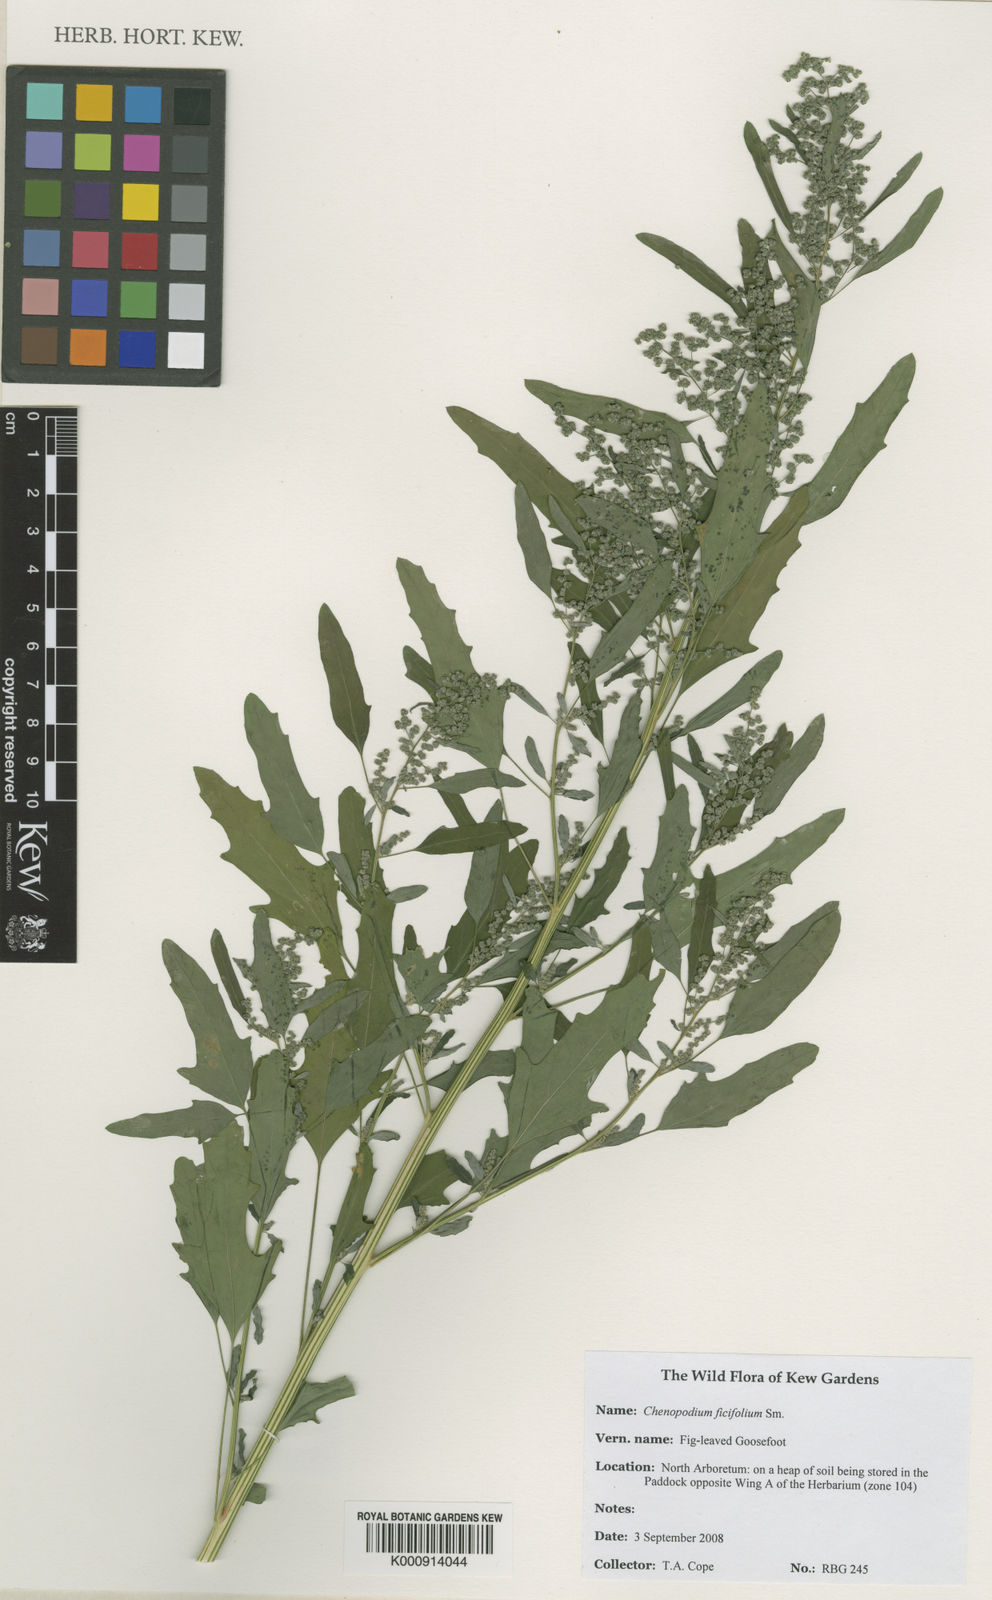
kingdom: Plantae
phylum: Tracheophyta
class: Magnoliopsida
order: Caryophyllales
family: Amaranthaceae
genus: Chenopodium
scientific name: Chenopodium ficifolium
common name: Fig-leaved goosefoot
